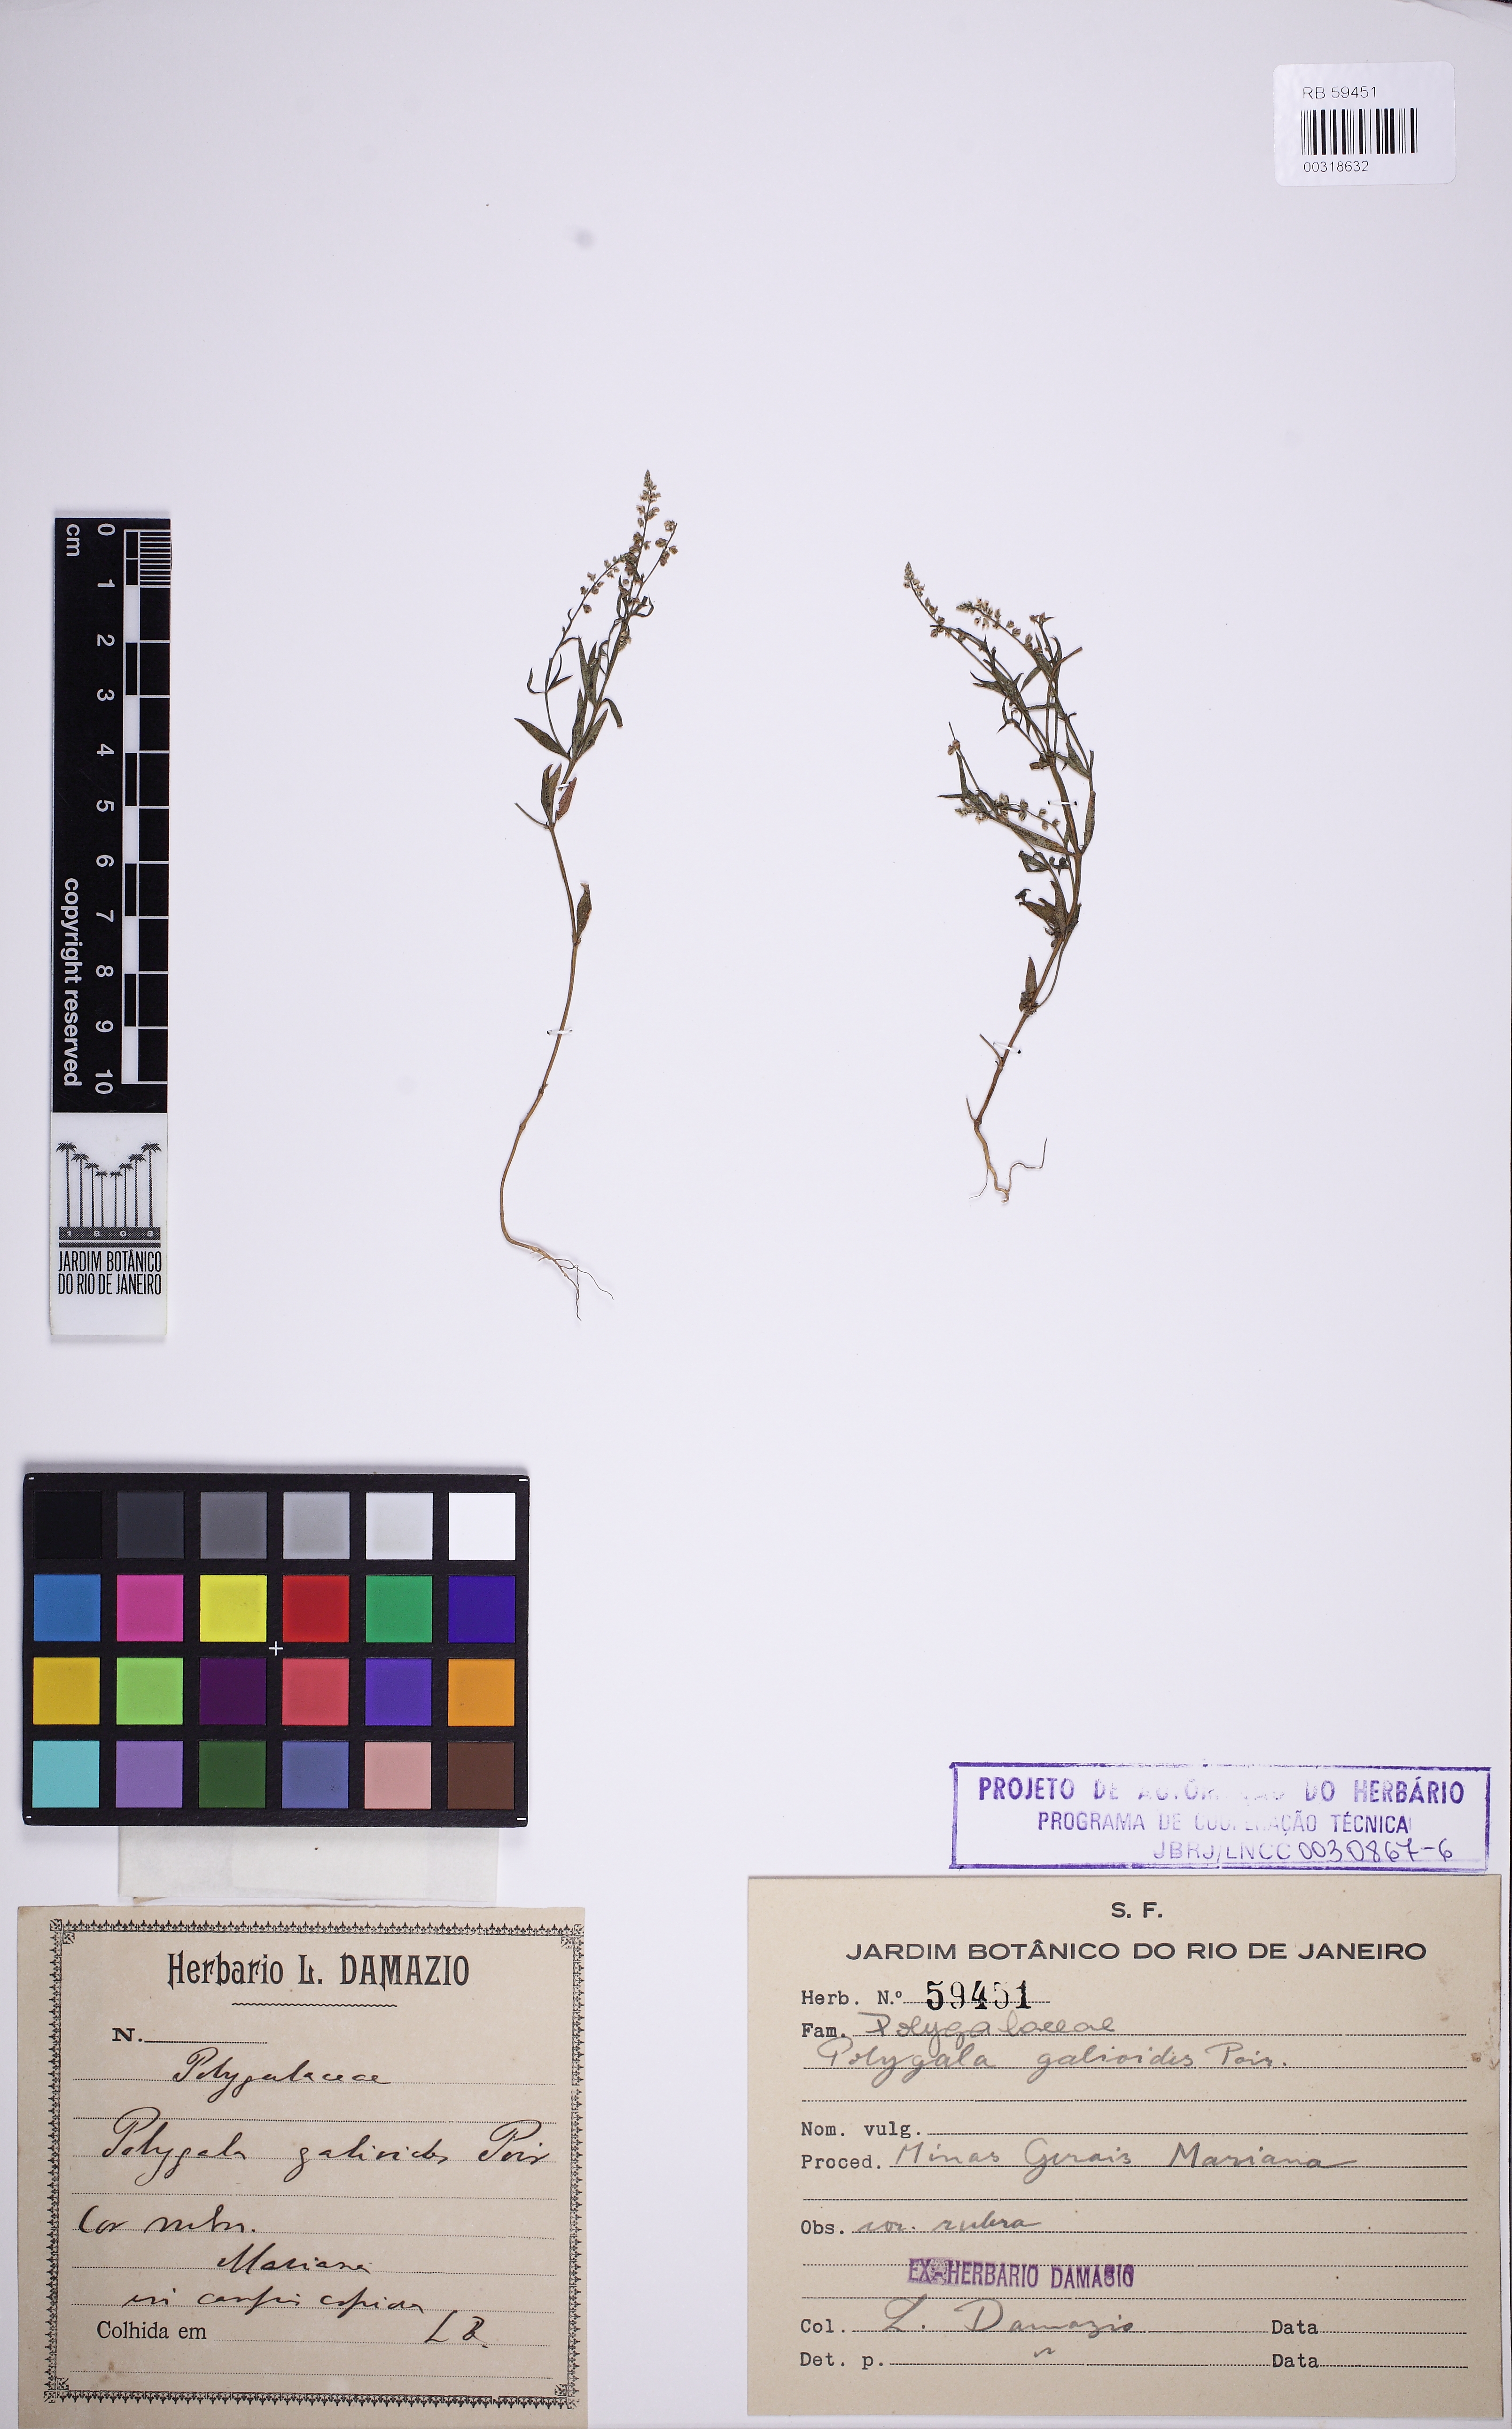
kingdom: Plantae
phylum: Tracheophyta
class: Magnoliopsida
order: Fabales
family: Polygalaceae
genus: Polygala
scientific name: Polygala galioides
